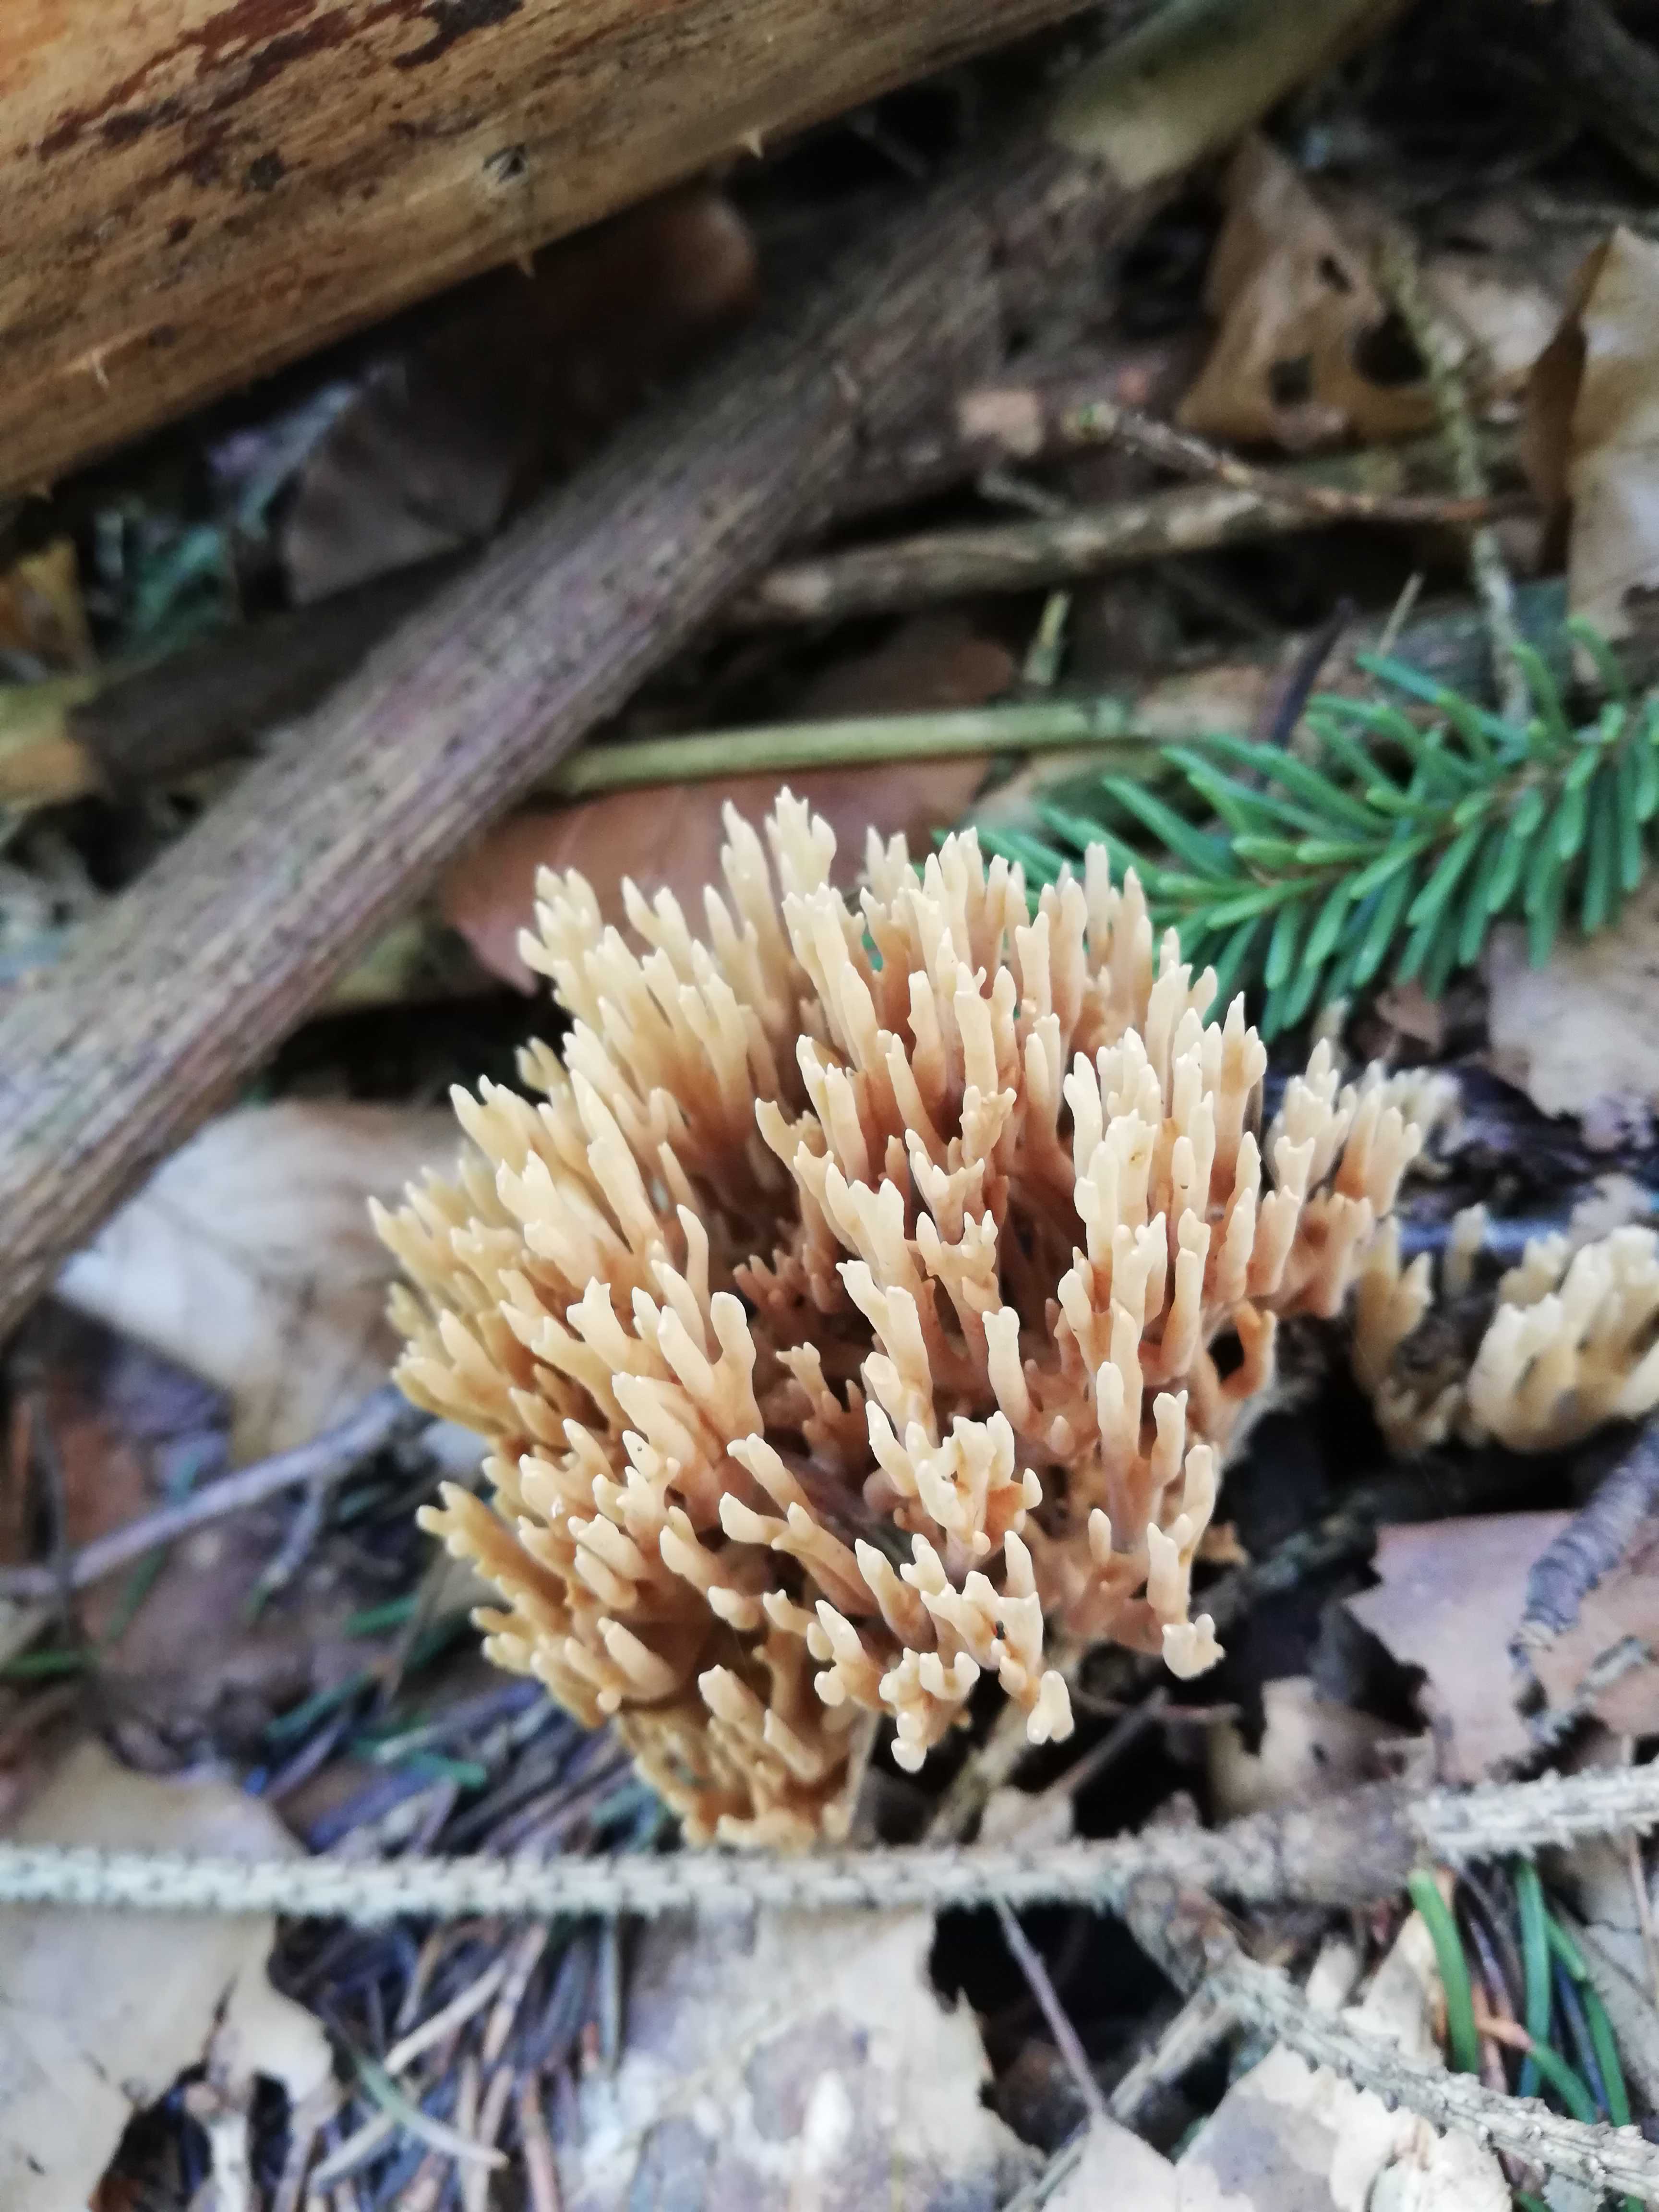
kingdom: Fungi
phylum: Basidiomycota
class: Agaricomycetes
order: Gomphales
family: Gomphaceae
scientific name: Gomphaceae
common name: køllekantarelfamilien
